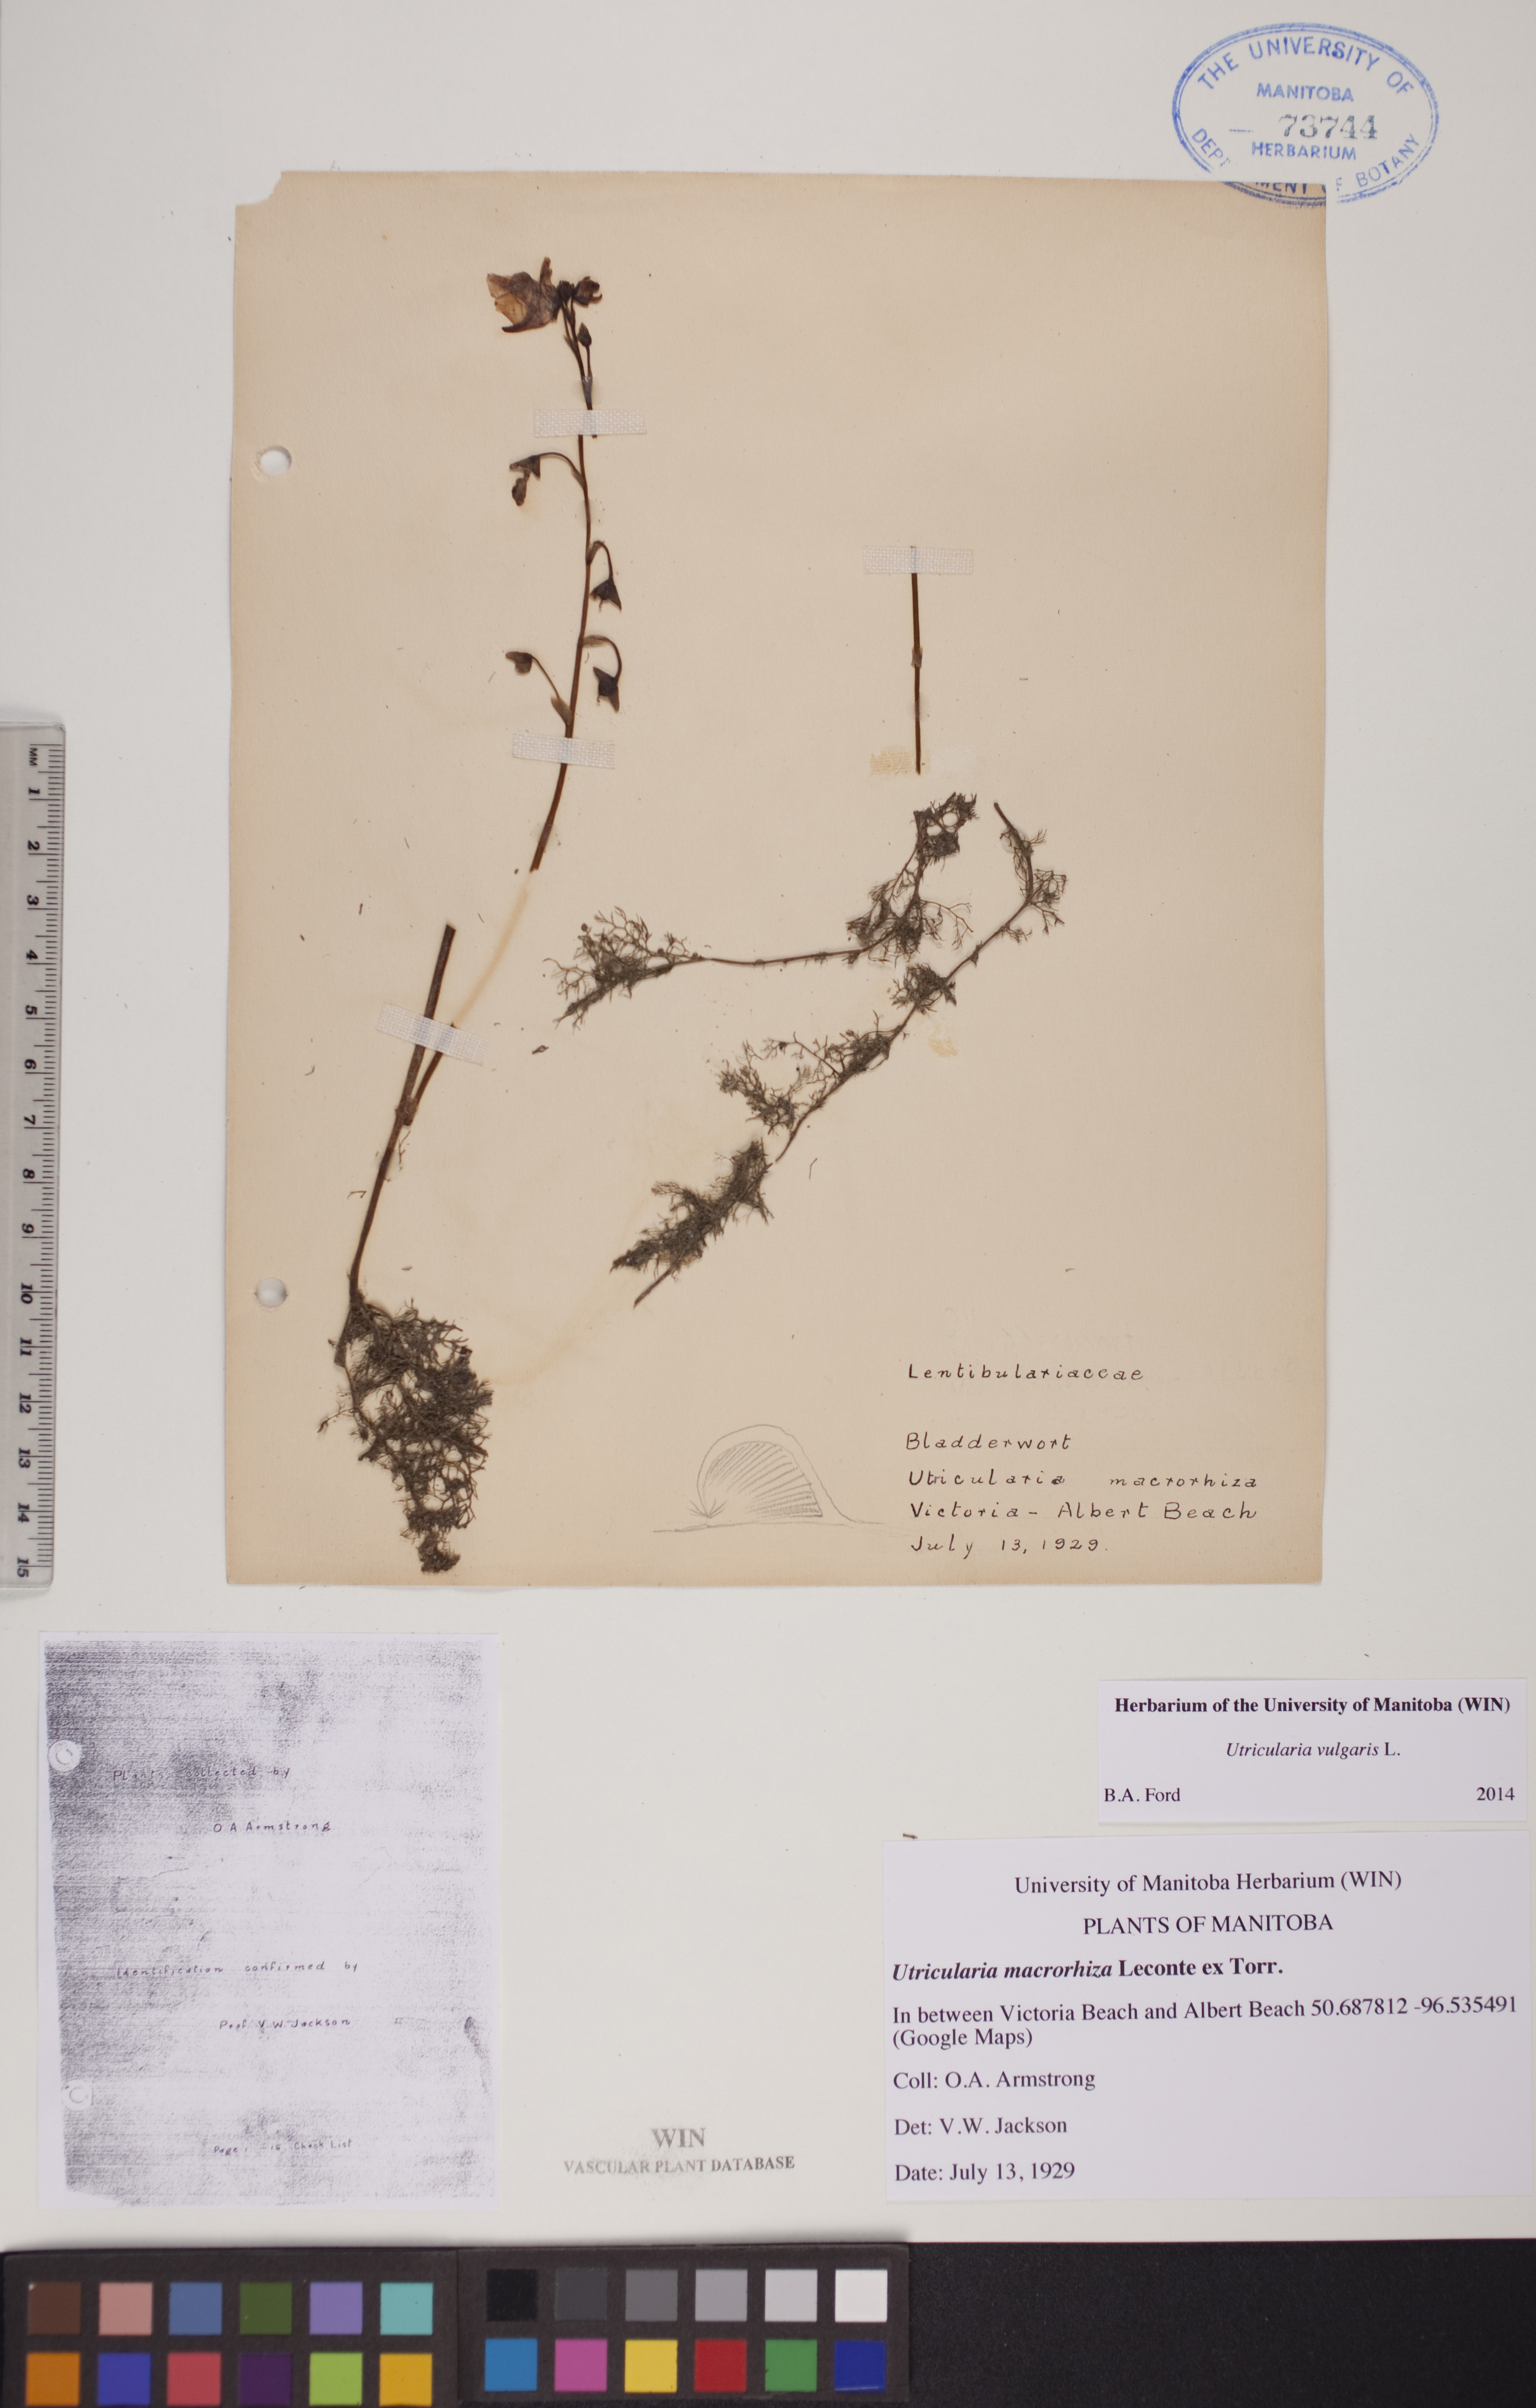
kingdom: Plantae
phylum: Tracheophyta
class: Magnoliopsida
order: Lamiales
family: Lentibulariaceae
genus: Utricularia
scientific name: Utricularia vulgaris
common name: Greater bladderwort
